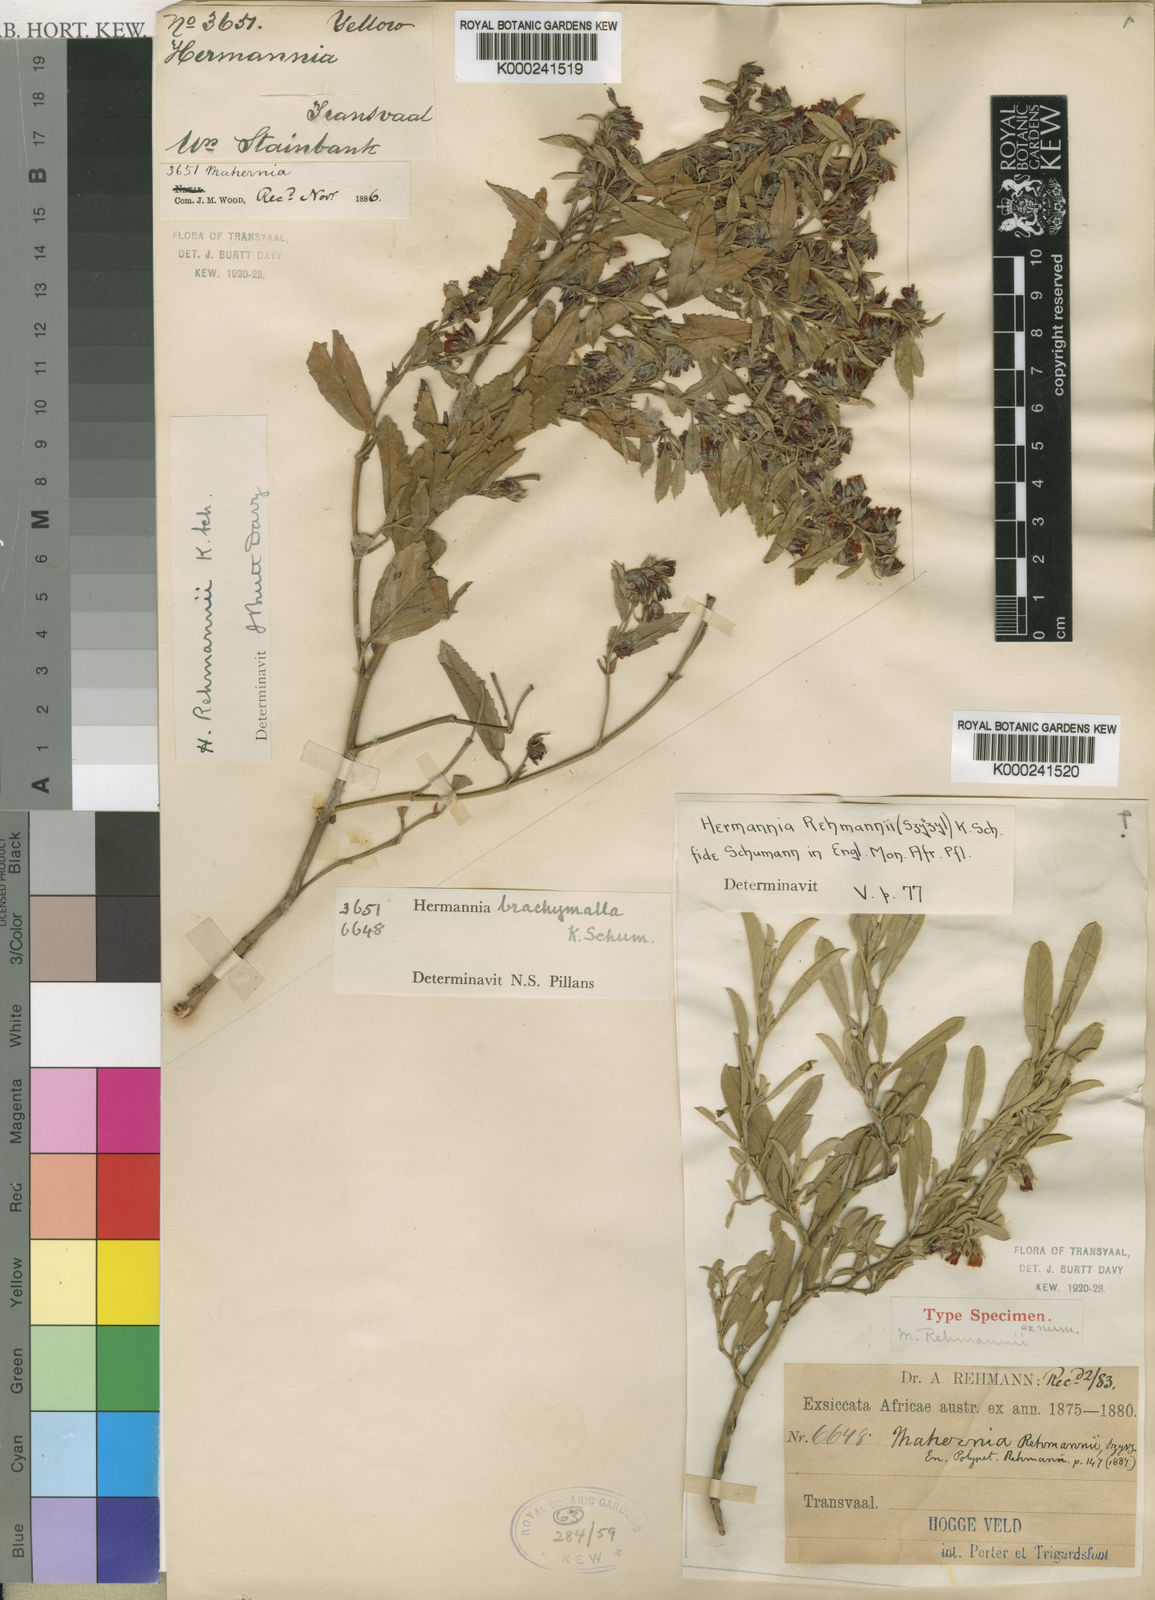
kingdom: Plantae
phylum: Tracheophyta
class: Magnoliopsida
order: Malvales
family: Malvaceae
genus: Hermannia
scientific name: Hermannia brachymalla
